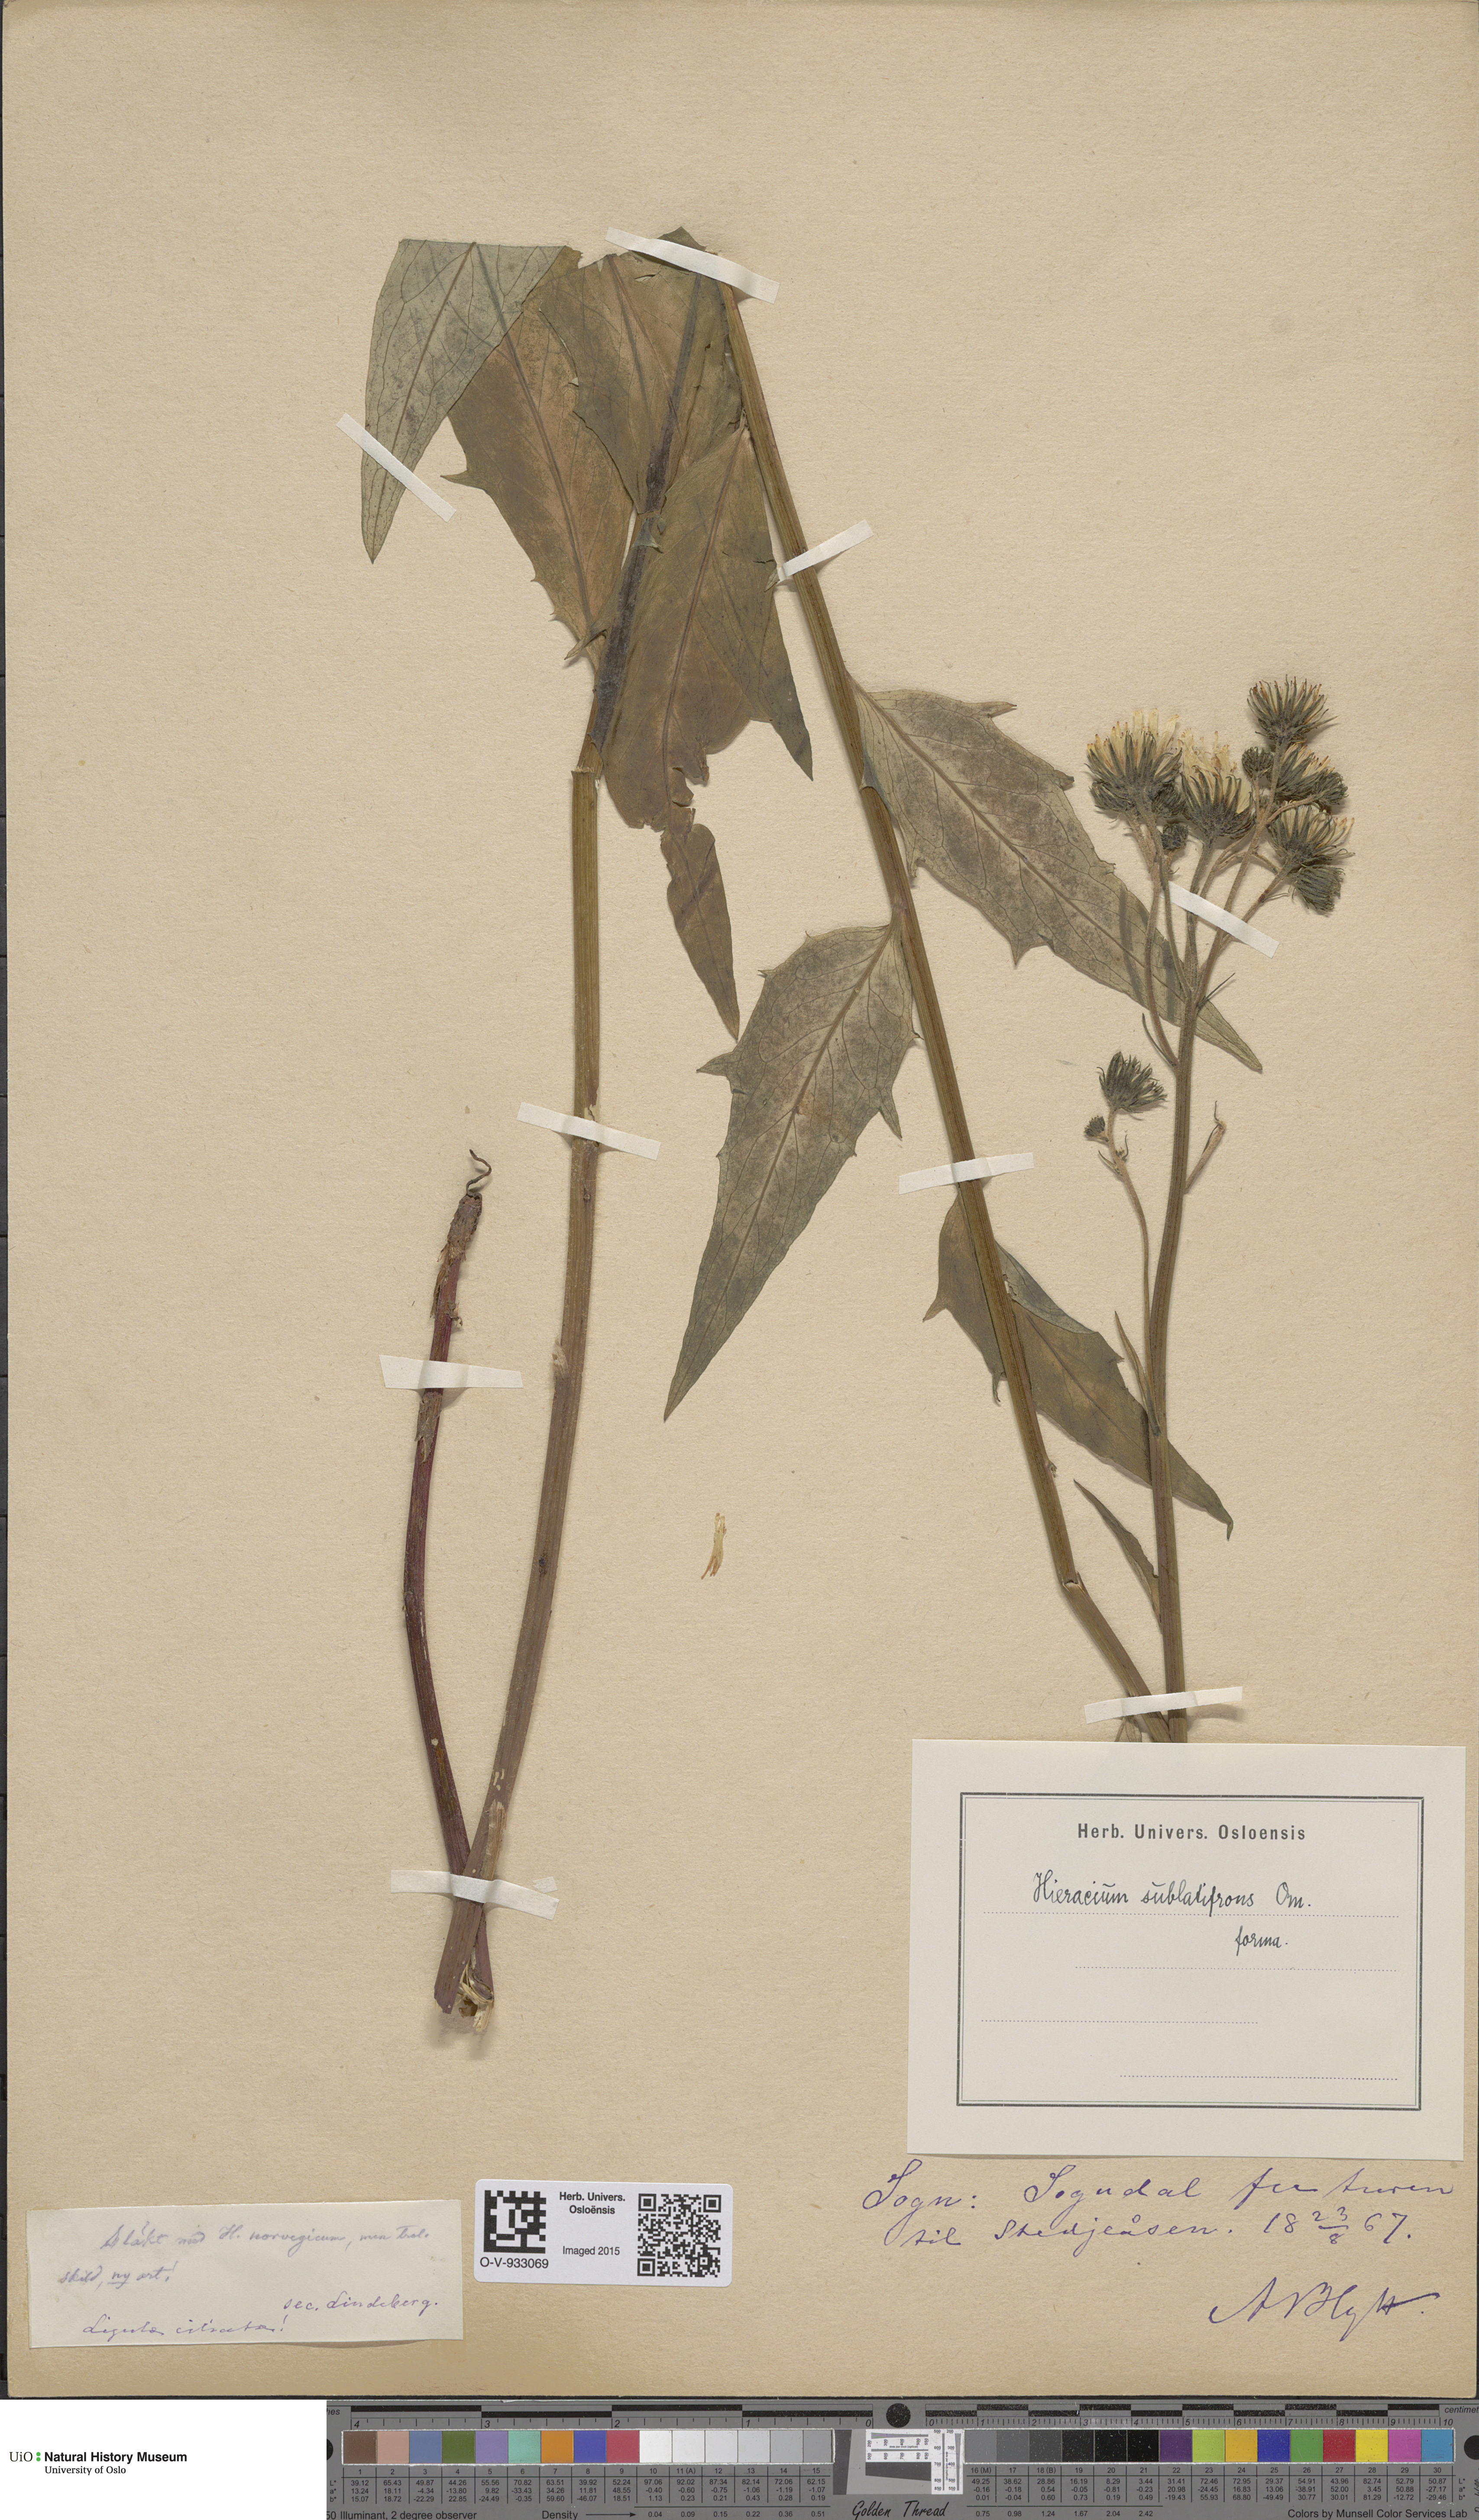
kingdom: Plantae
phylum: Tracheophyta
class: Magnoliopsida
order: Asterales
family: Asteraceae
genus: Hieracium
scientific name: Hieracium
